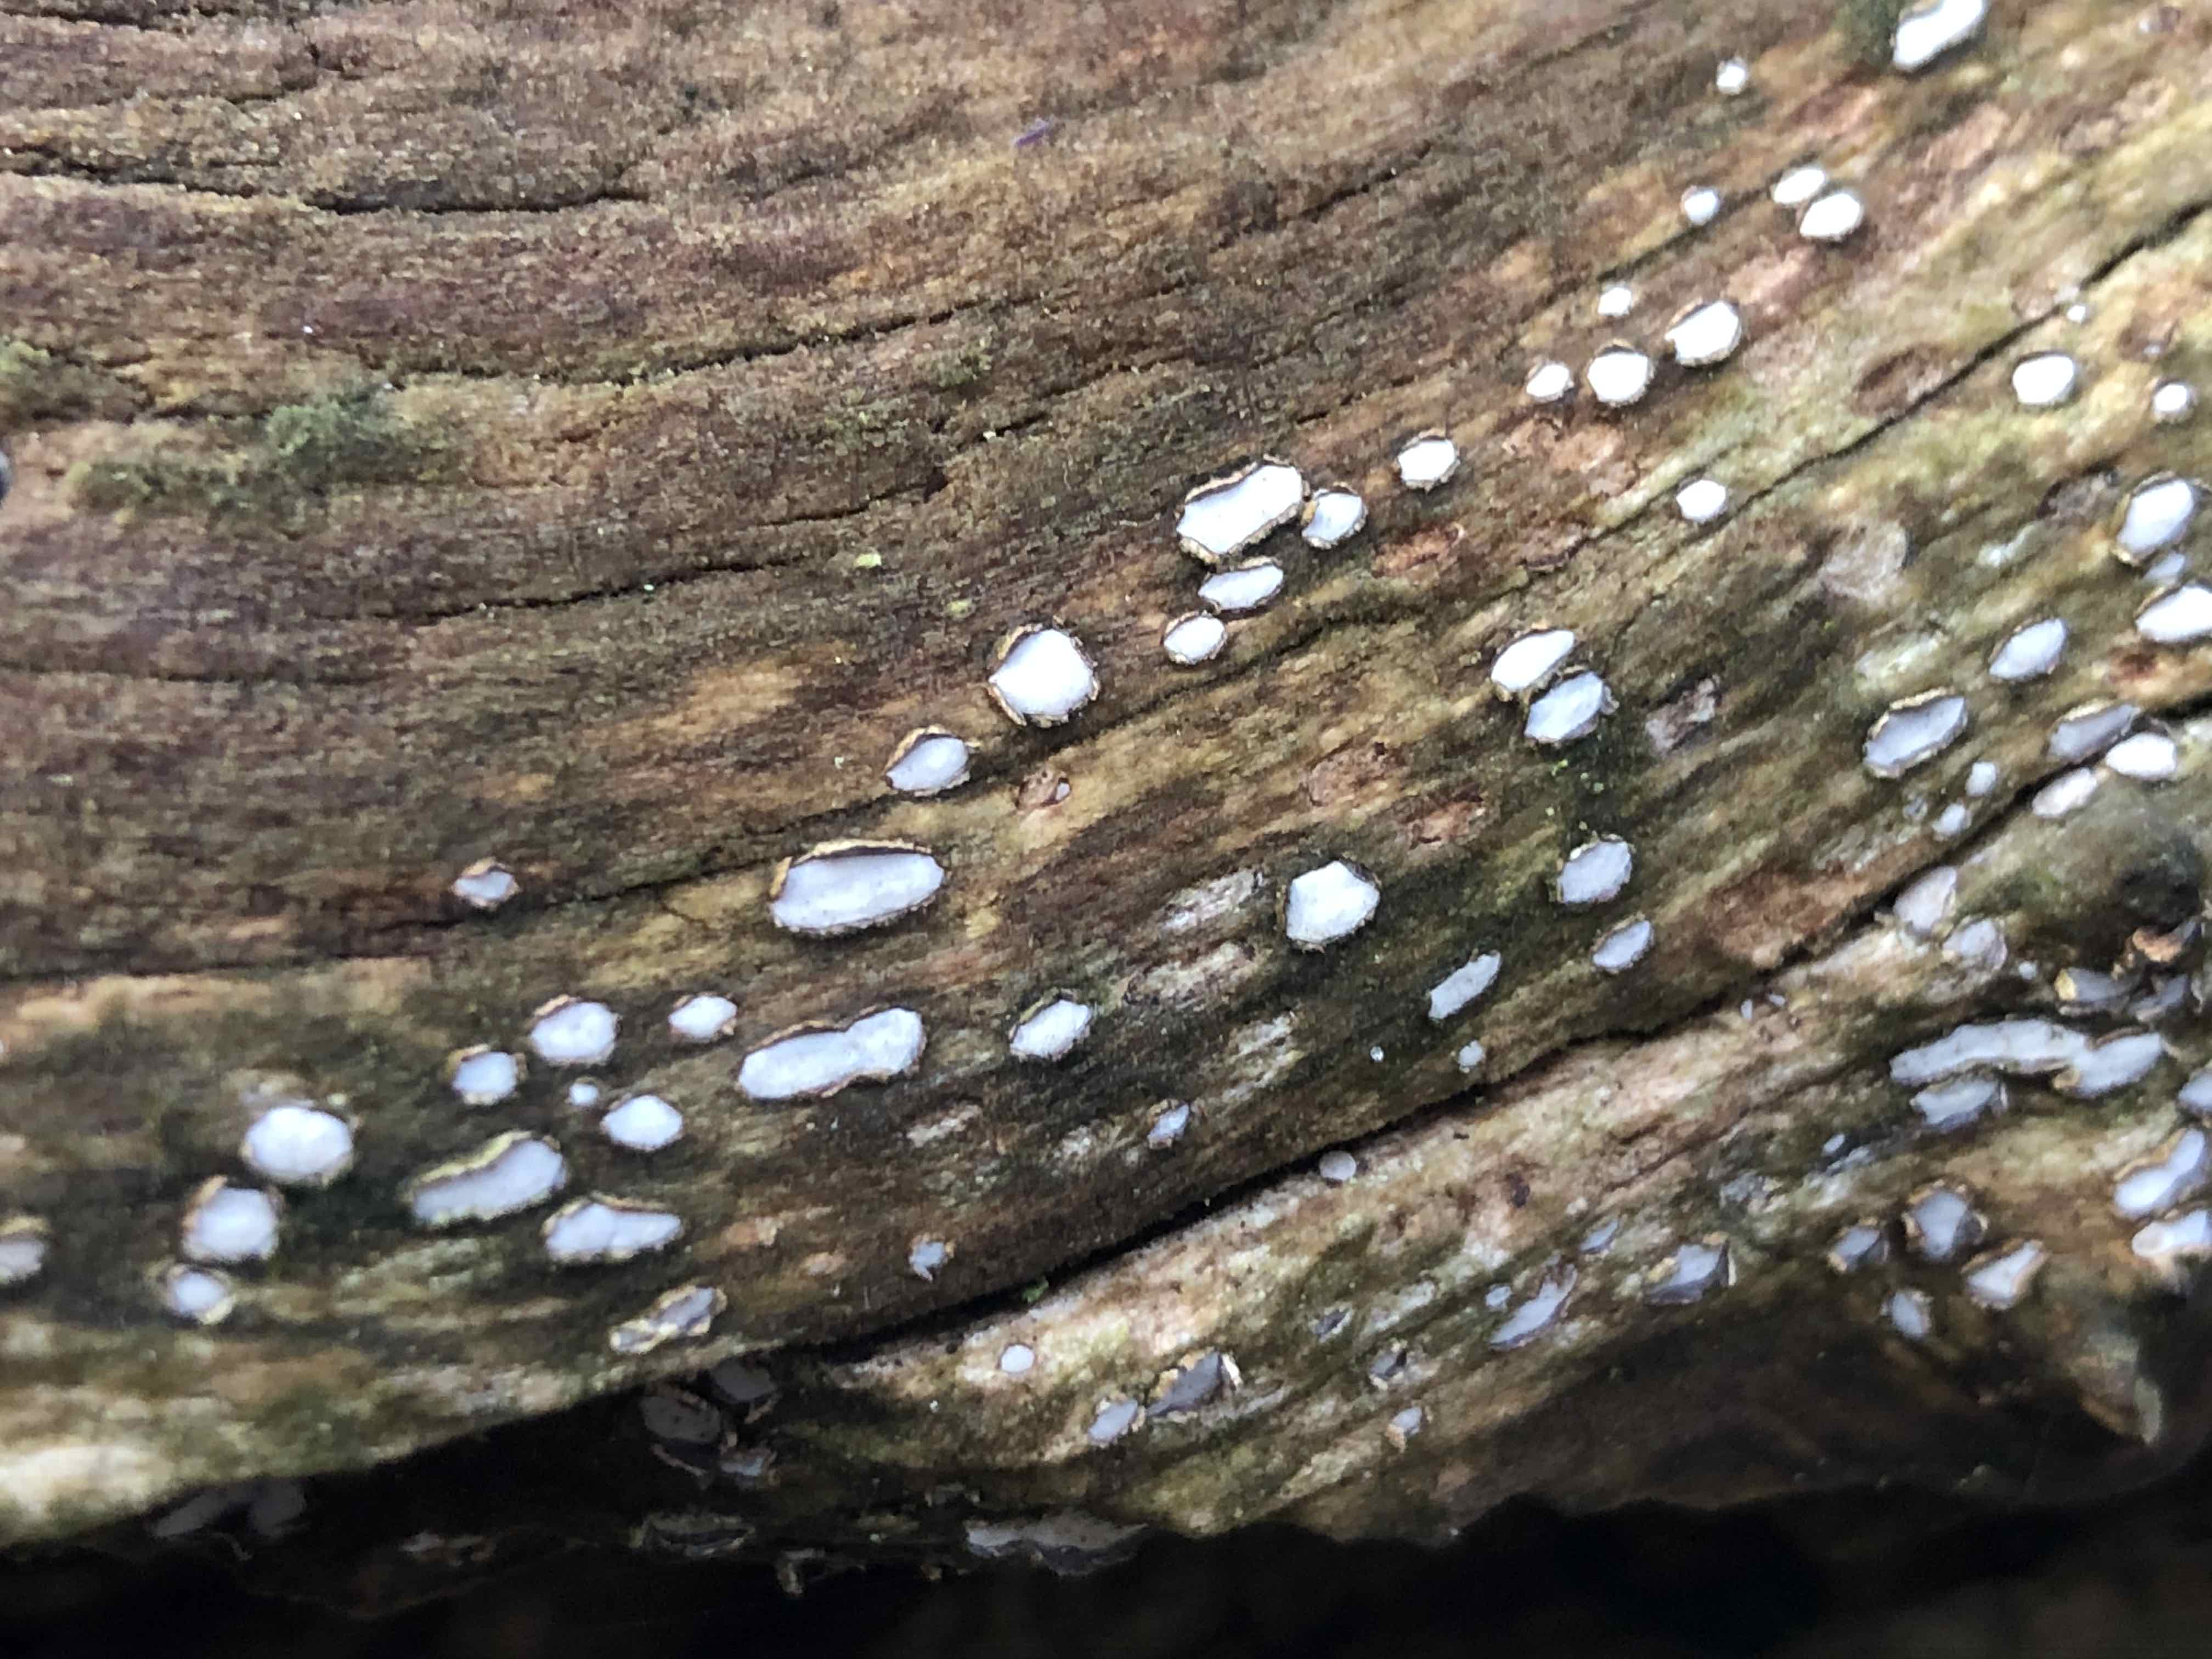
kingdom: Fungi
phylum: Ascomycota
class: Leotiomycetes
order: Chaetomellales
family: Marthamycetaceae
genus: Propolis
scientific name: Propolis farinosa
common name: almindelig vedsprængerskive
